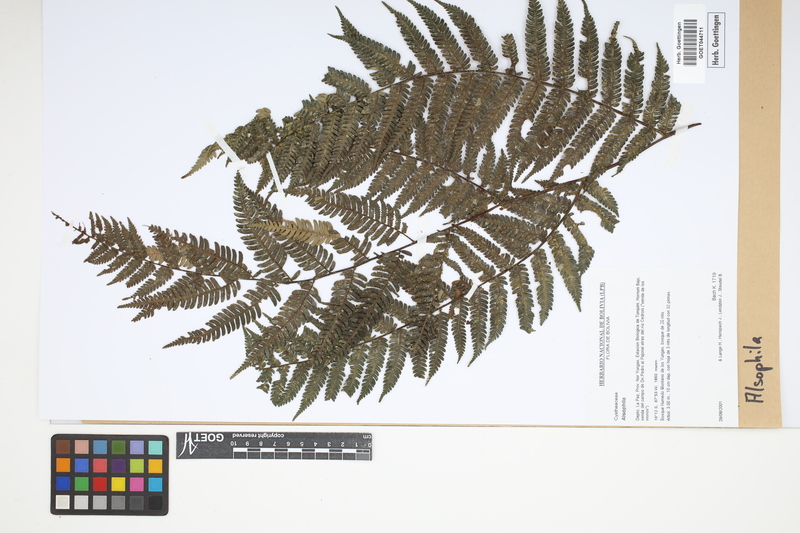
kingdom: Plantae
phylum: Tracheophyta
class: Polypodiopsida
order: Cyatheales
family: Cyatheaceae
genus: Alsophila
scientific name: Alsophila
